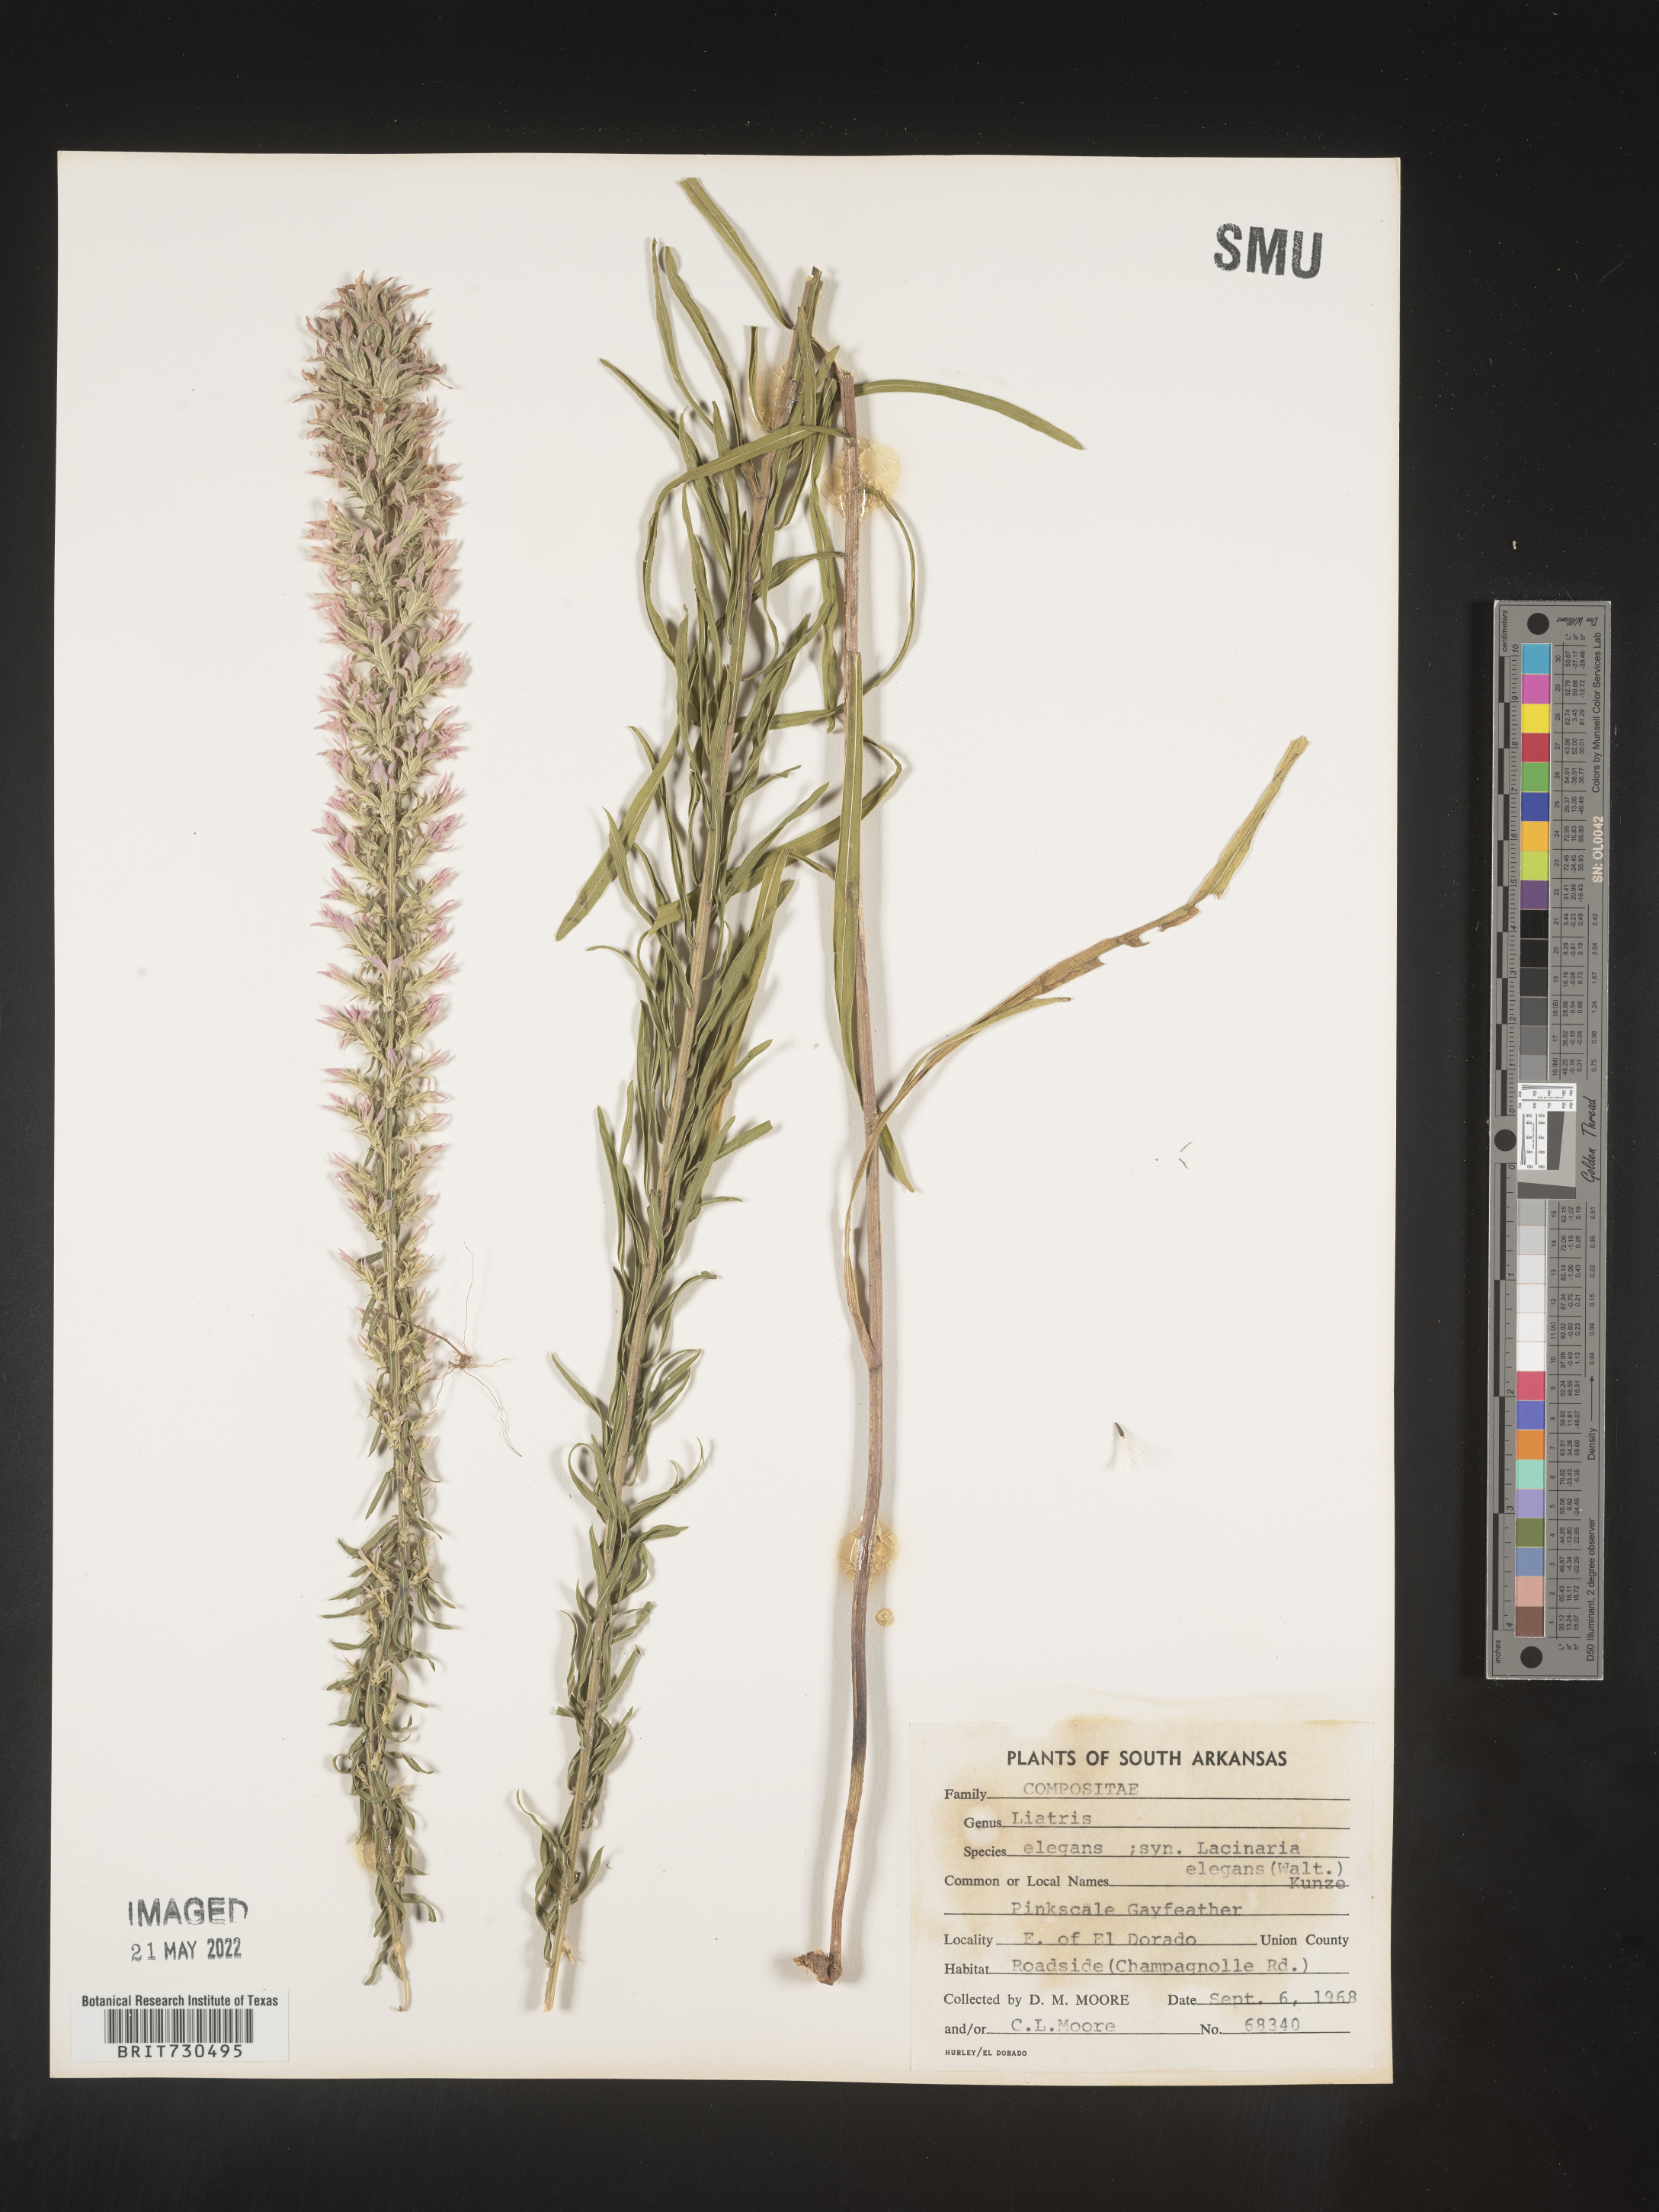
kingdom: Plantae
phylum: Tracheophyta
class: Magnoliopsida
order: Asterales
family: Asteraceae
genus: Liatris
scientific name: Liatris elegans
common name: Pinkscale gayfeather
